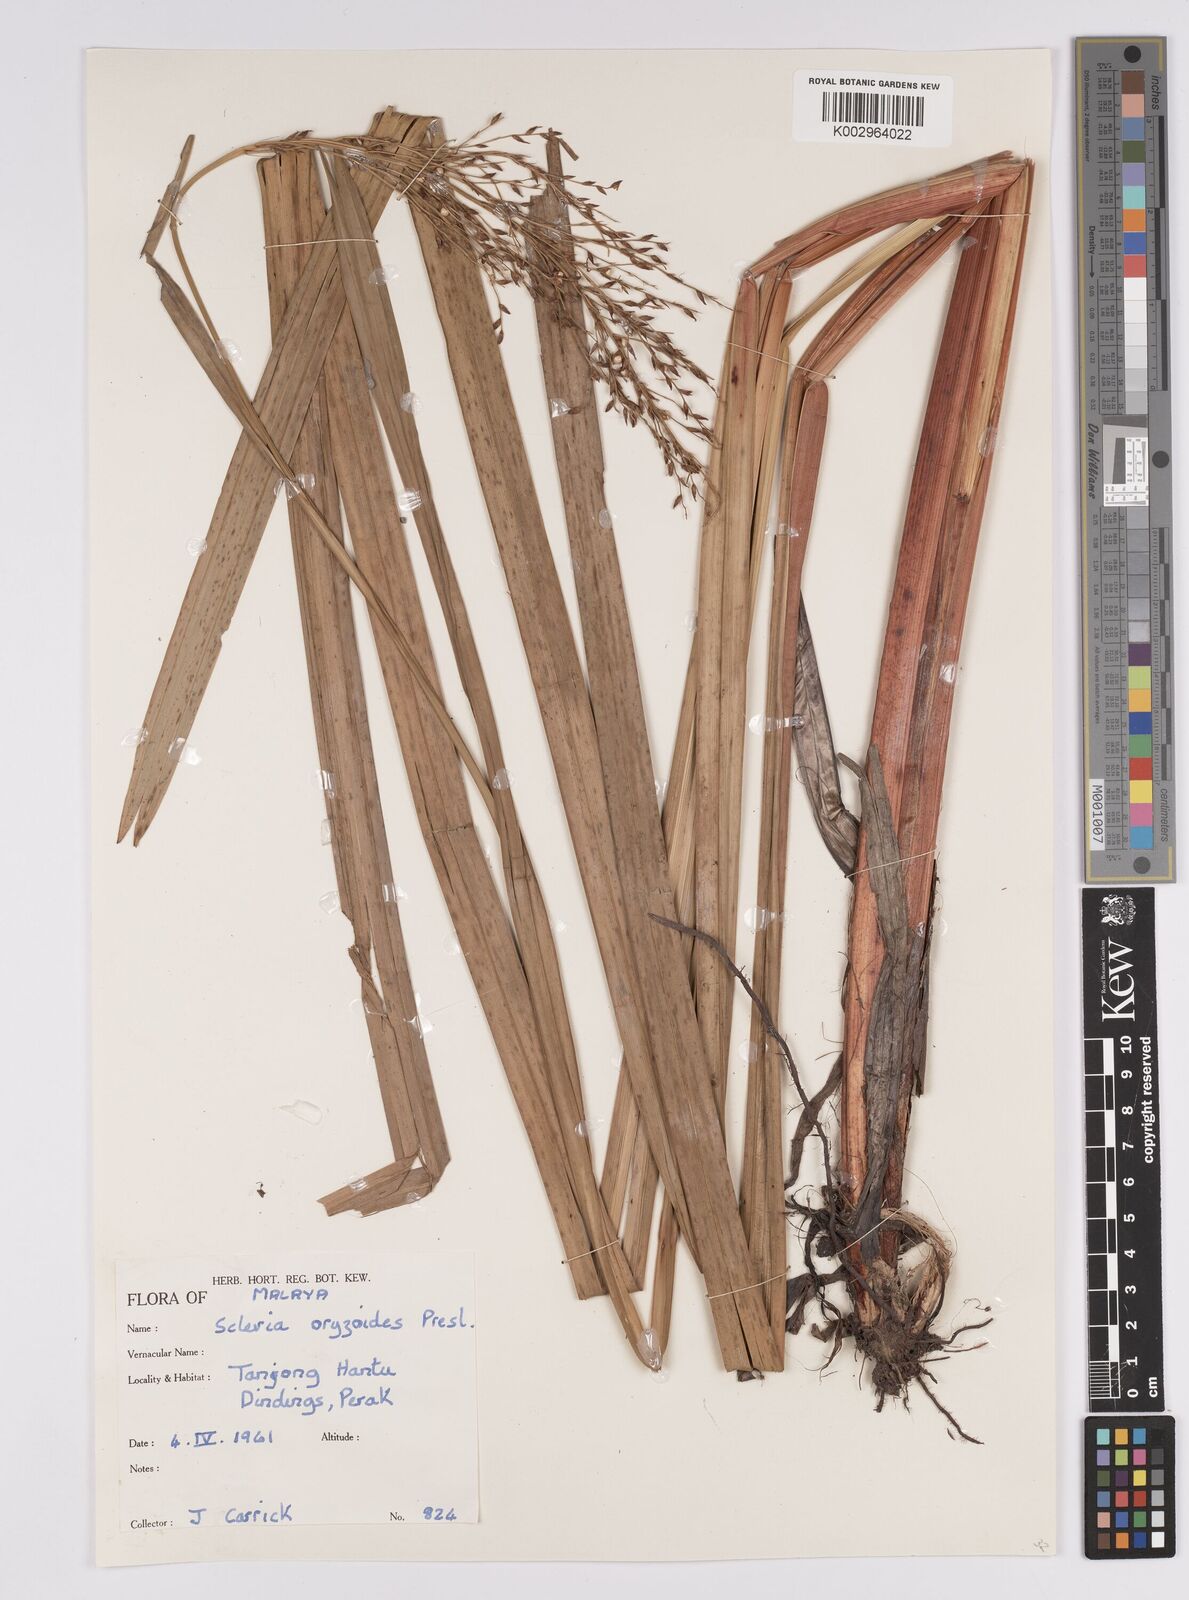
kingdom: Plantae
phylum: Tracheophyta
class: Liliopsida
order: Poales
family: Cyperaceae
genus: Scleria
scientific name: Scleria poiformis
